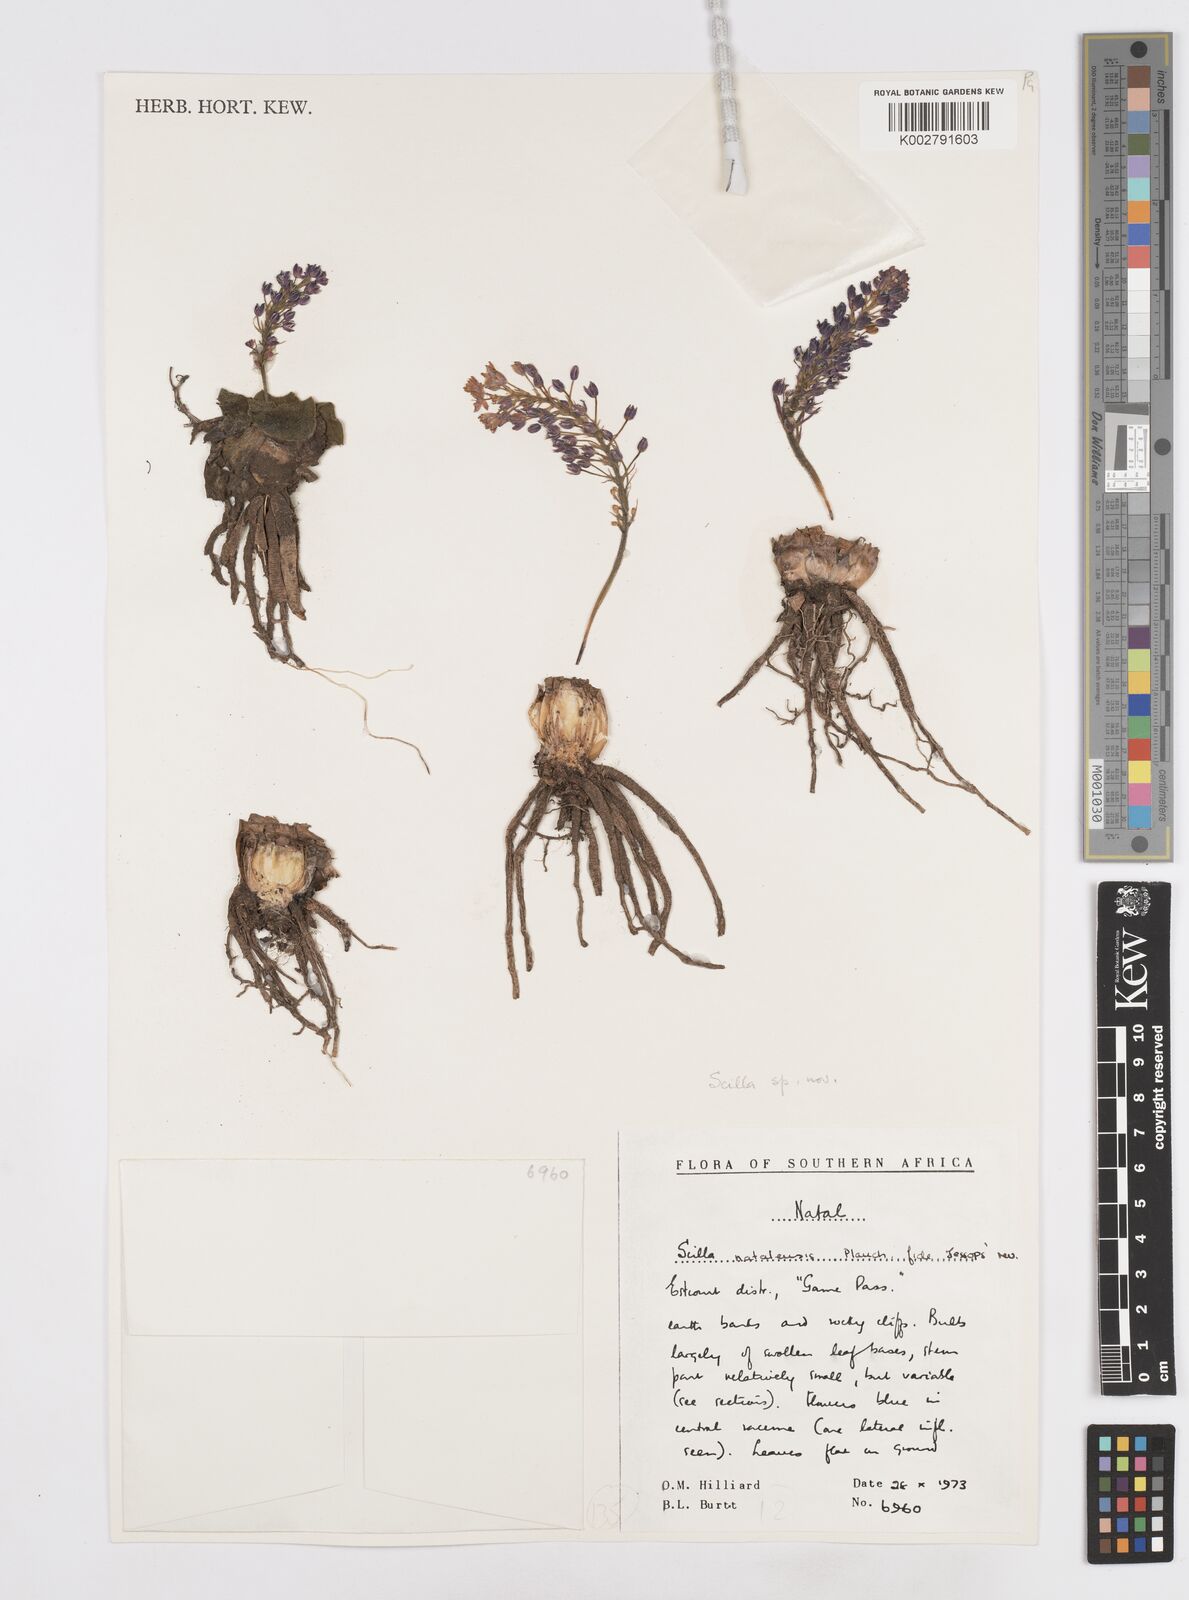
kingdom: Plantae
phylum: Tracheophyta
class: Liliopsida
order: Asparagales
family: Asparagaceae
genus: Scilla
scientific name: Scilla
